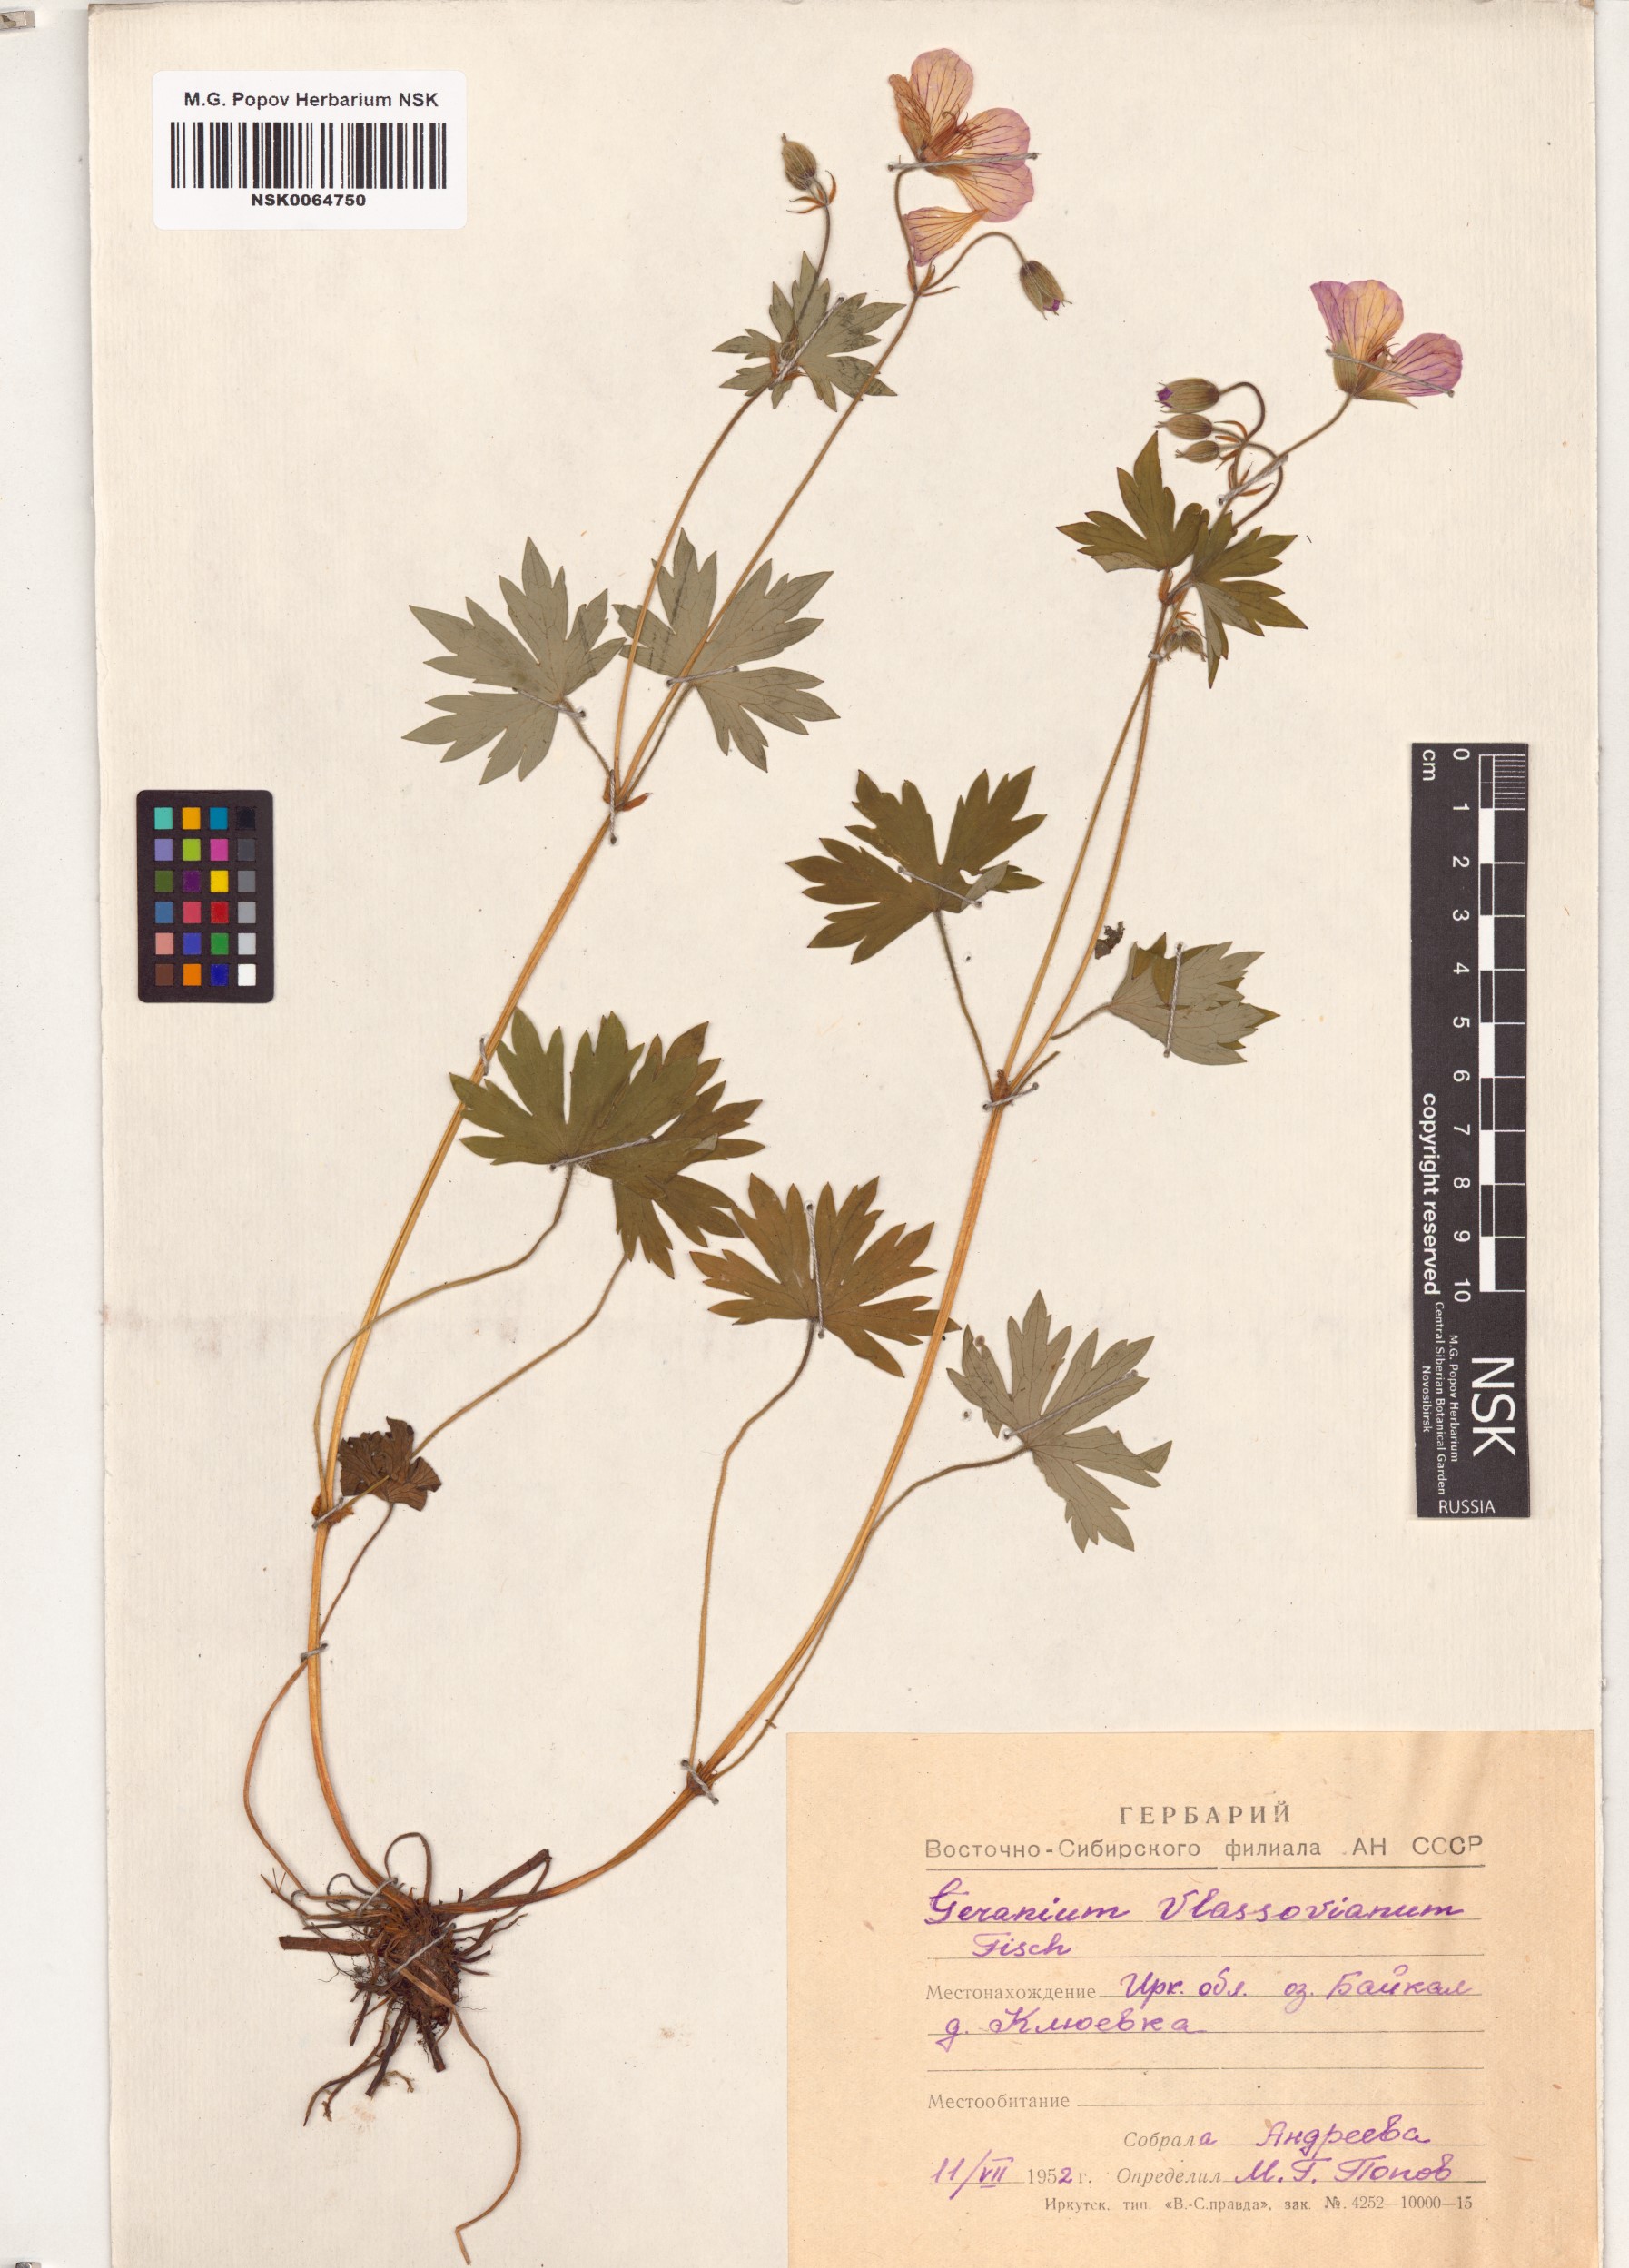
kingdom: Plantae
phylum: Tracheophyta
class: Magnoliopsida
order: Geraniales
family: Geraniaceae
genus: Geranium
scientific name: Geranium wlassovianum
